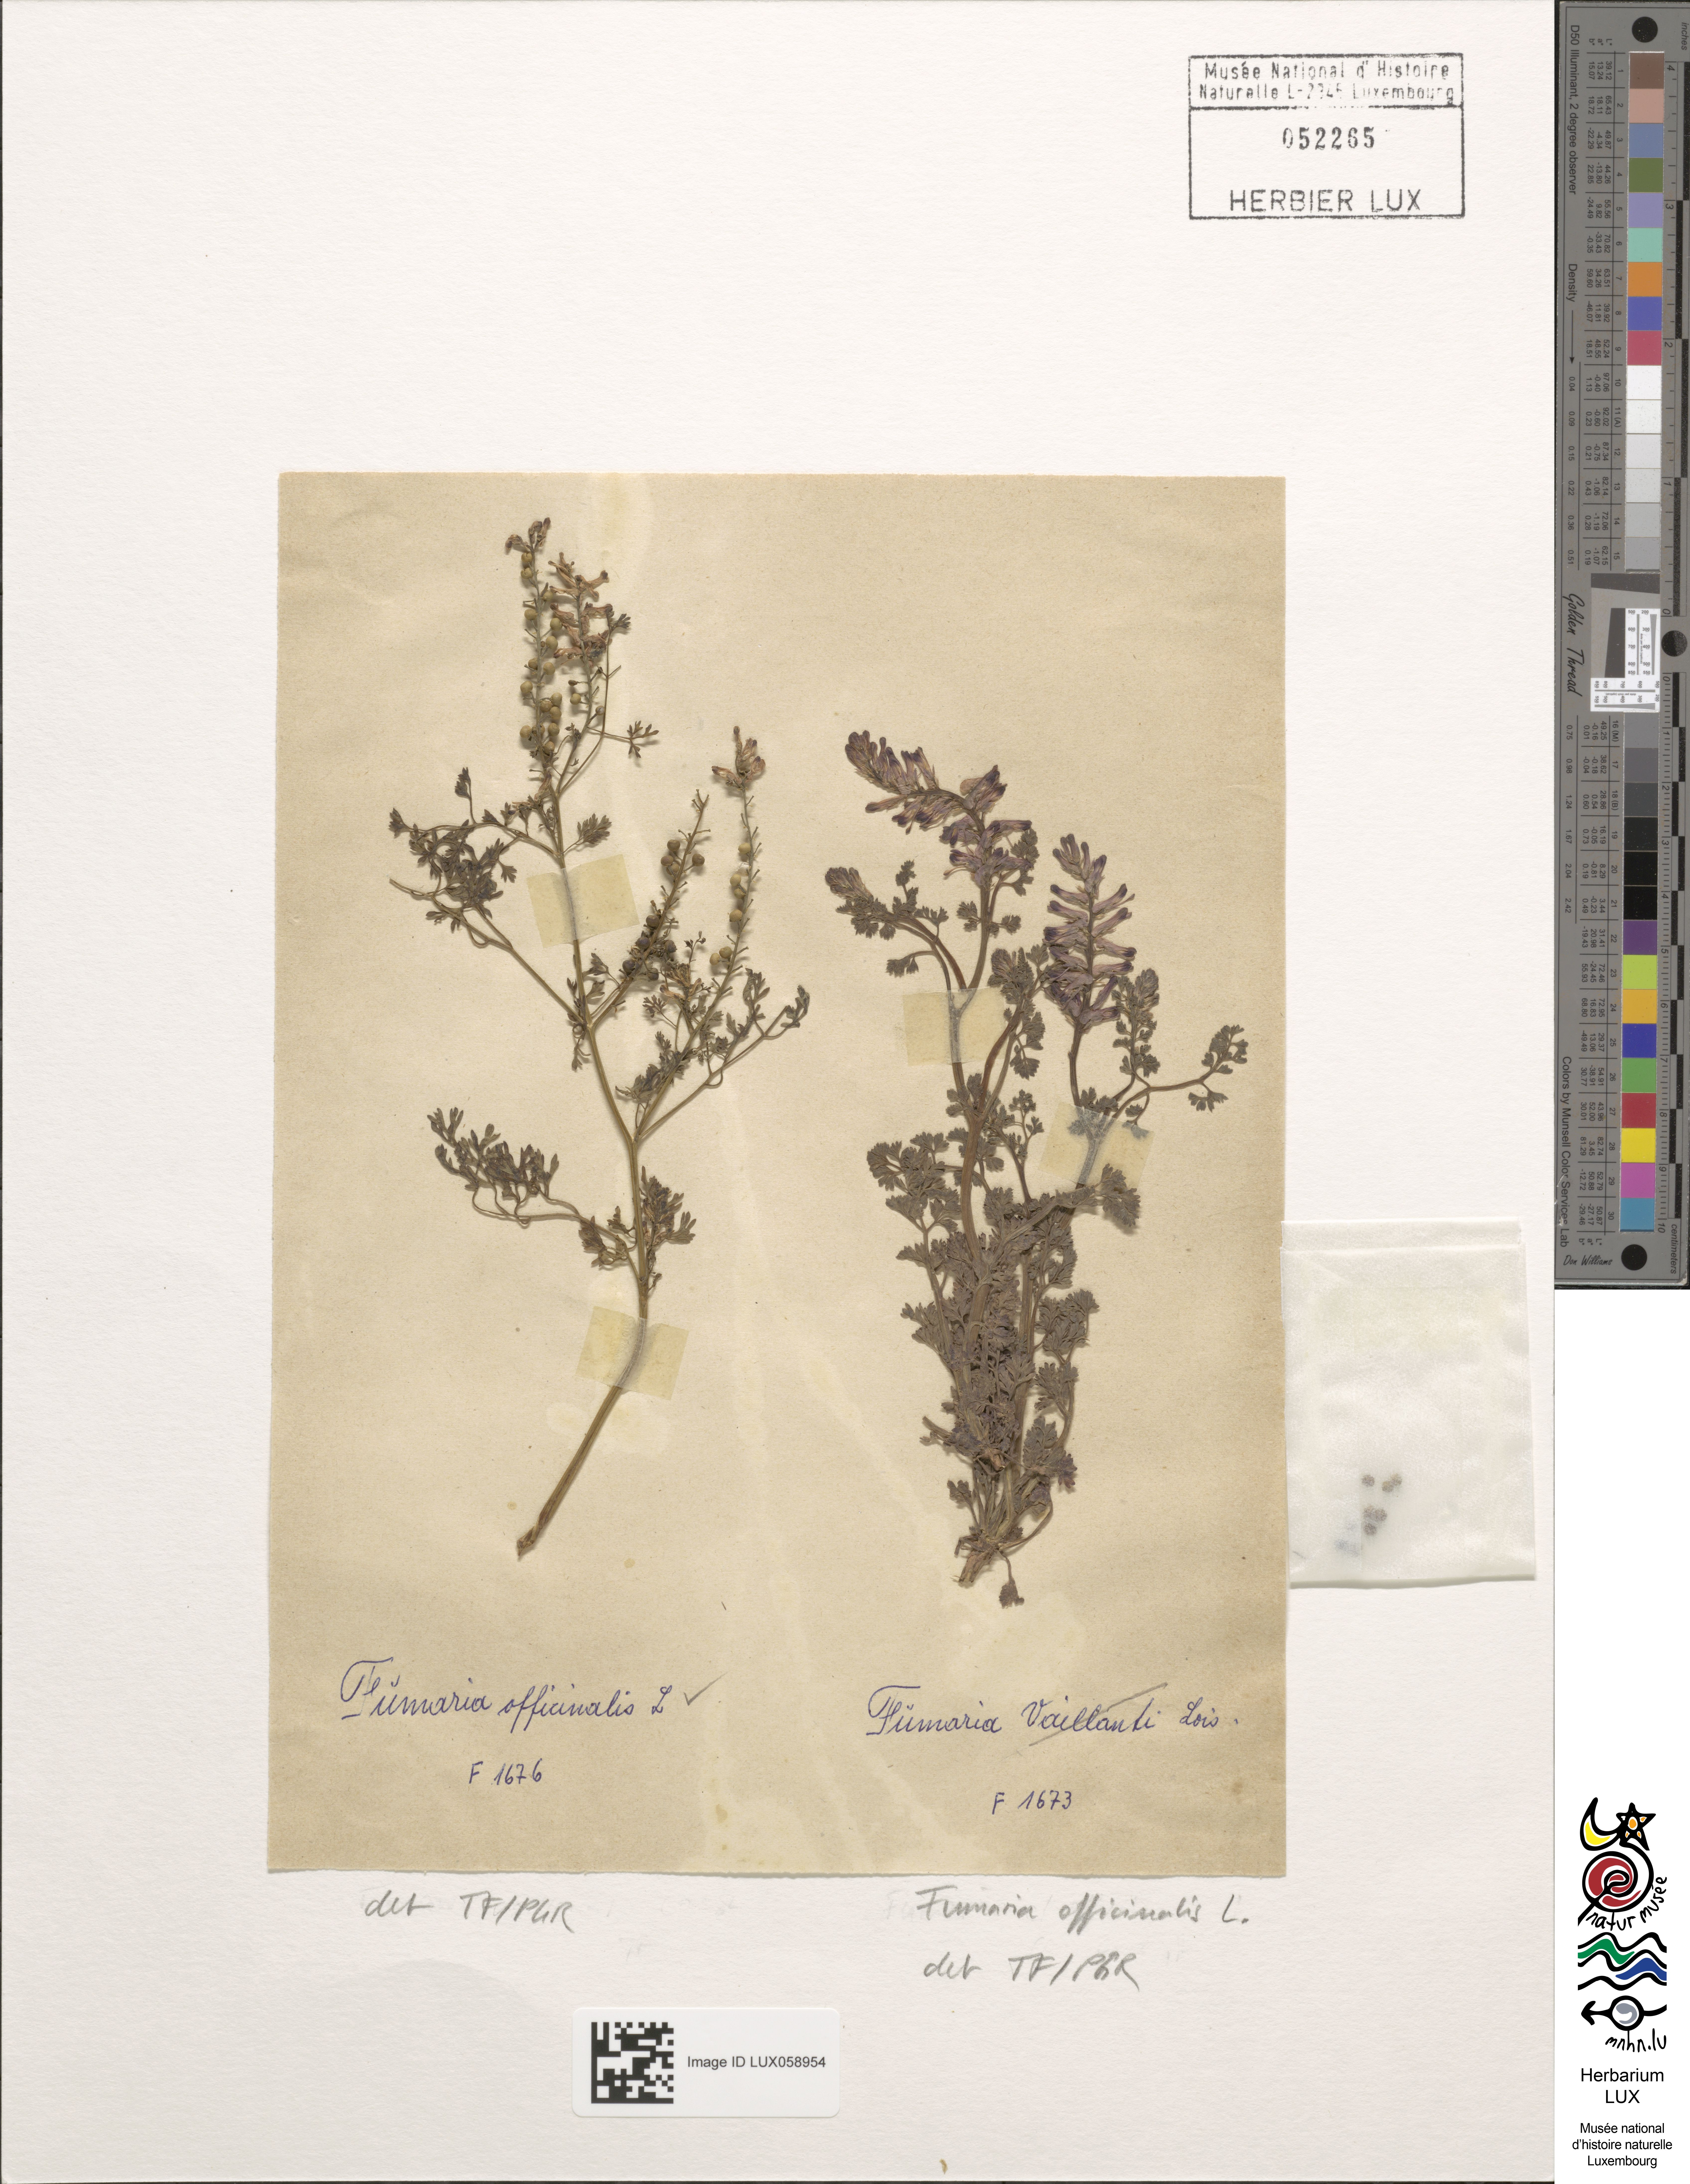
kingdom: Plantae
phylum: Tracheophyta
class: Magnoliopsida
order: Ranunculales
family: Papaveraceae
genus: Fumaria
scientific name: Fumaria officinalis
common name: Common fumitory
